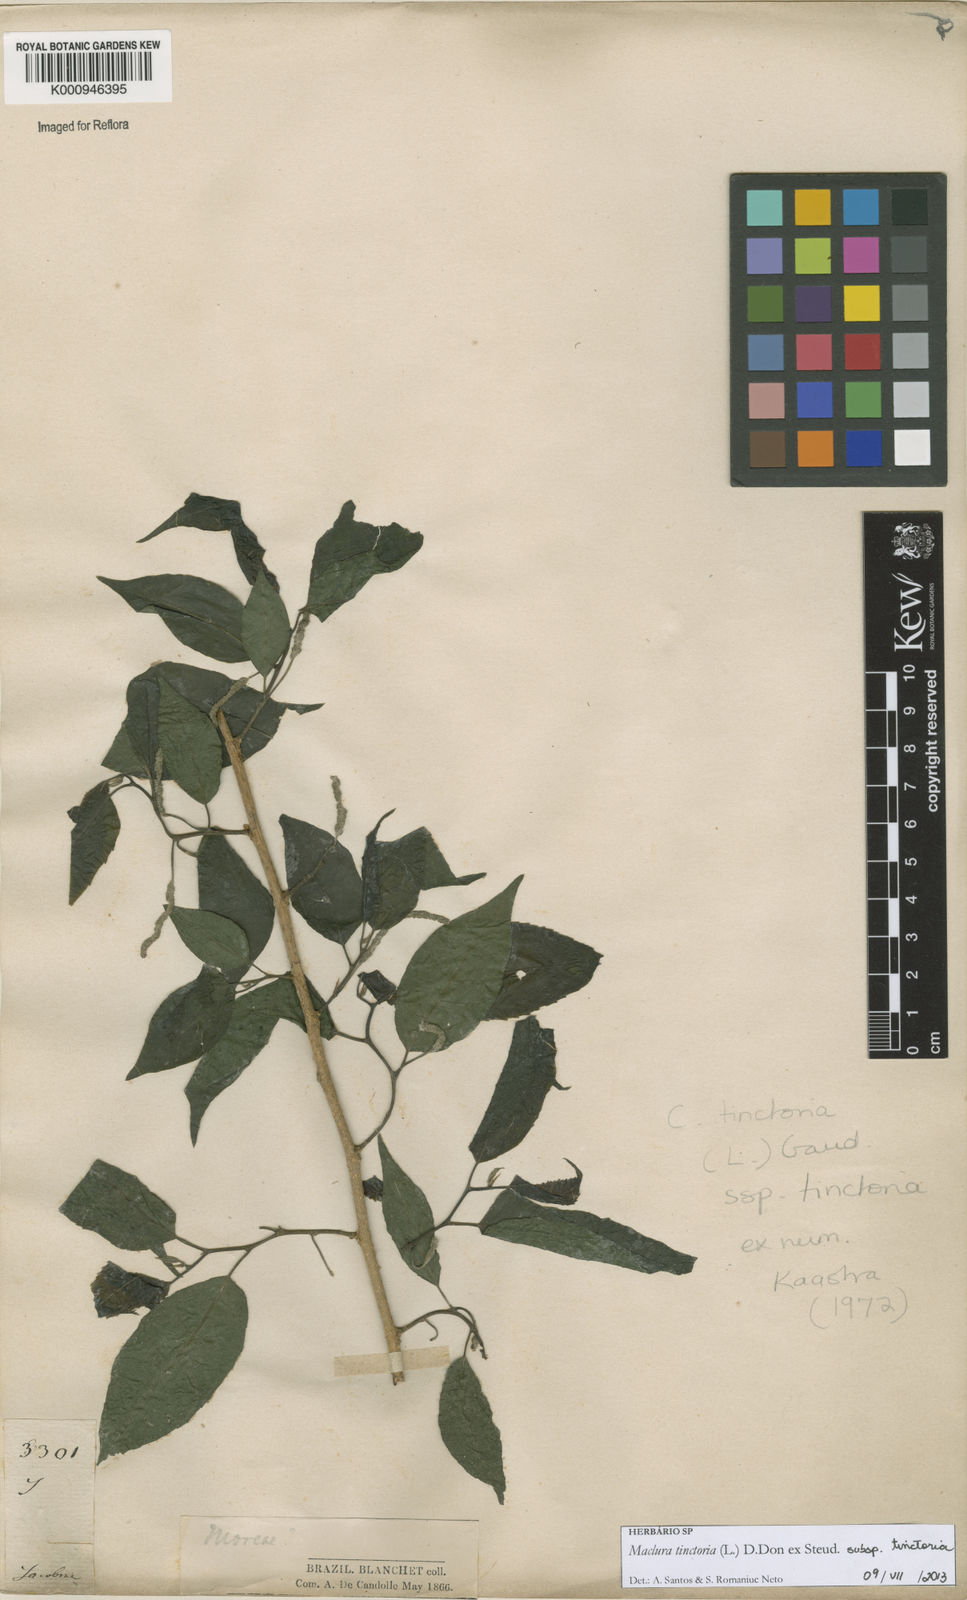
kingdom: Plantae
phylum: Tracheophyta
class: Magnoliopsida
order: Rosales
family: Moraceae
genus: Maclura
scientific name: Maclura tinctoria
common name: Old fustic
